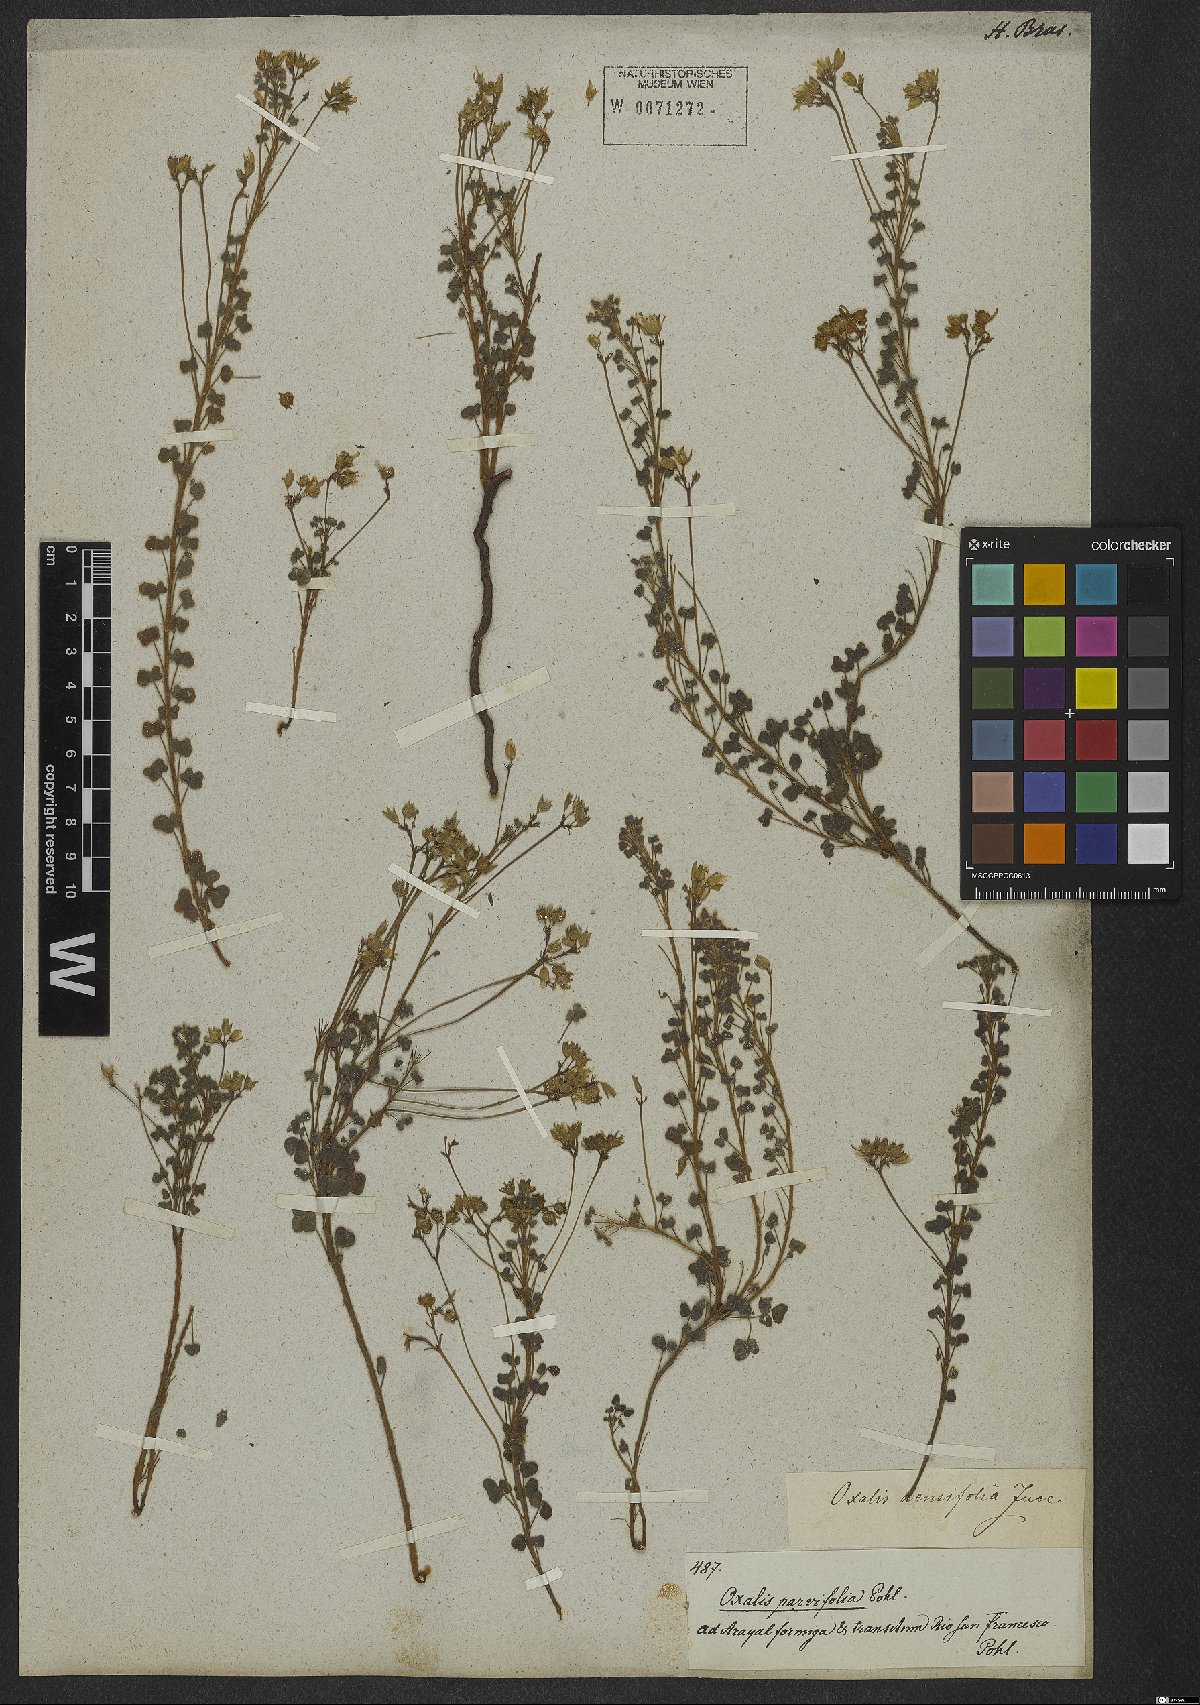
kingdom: Plantae
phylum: Tracheophyta
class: Magnoliopsida
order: Oxalidales
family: Oxalidaceae
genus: Oxalis
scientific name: Oxalis confertifolia
